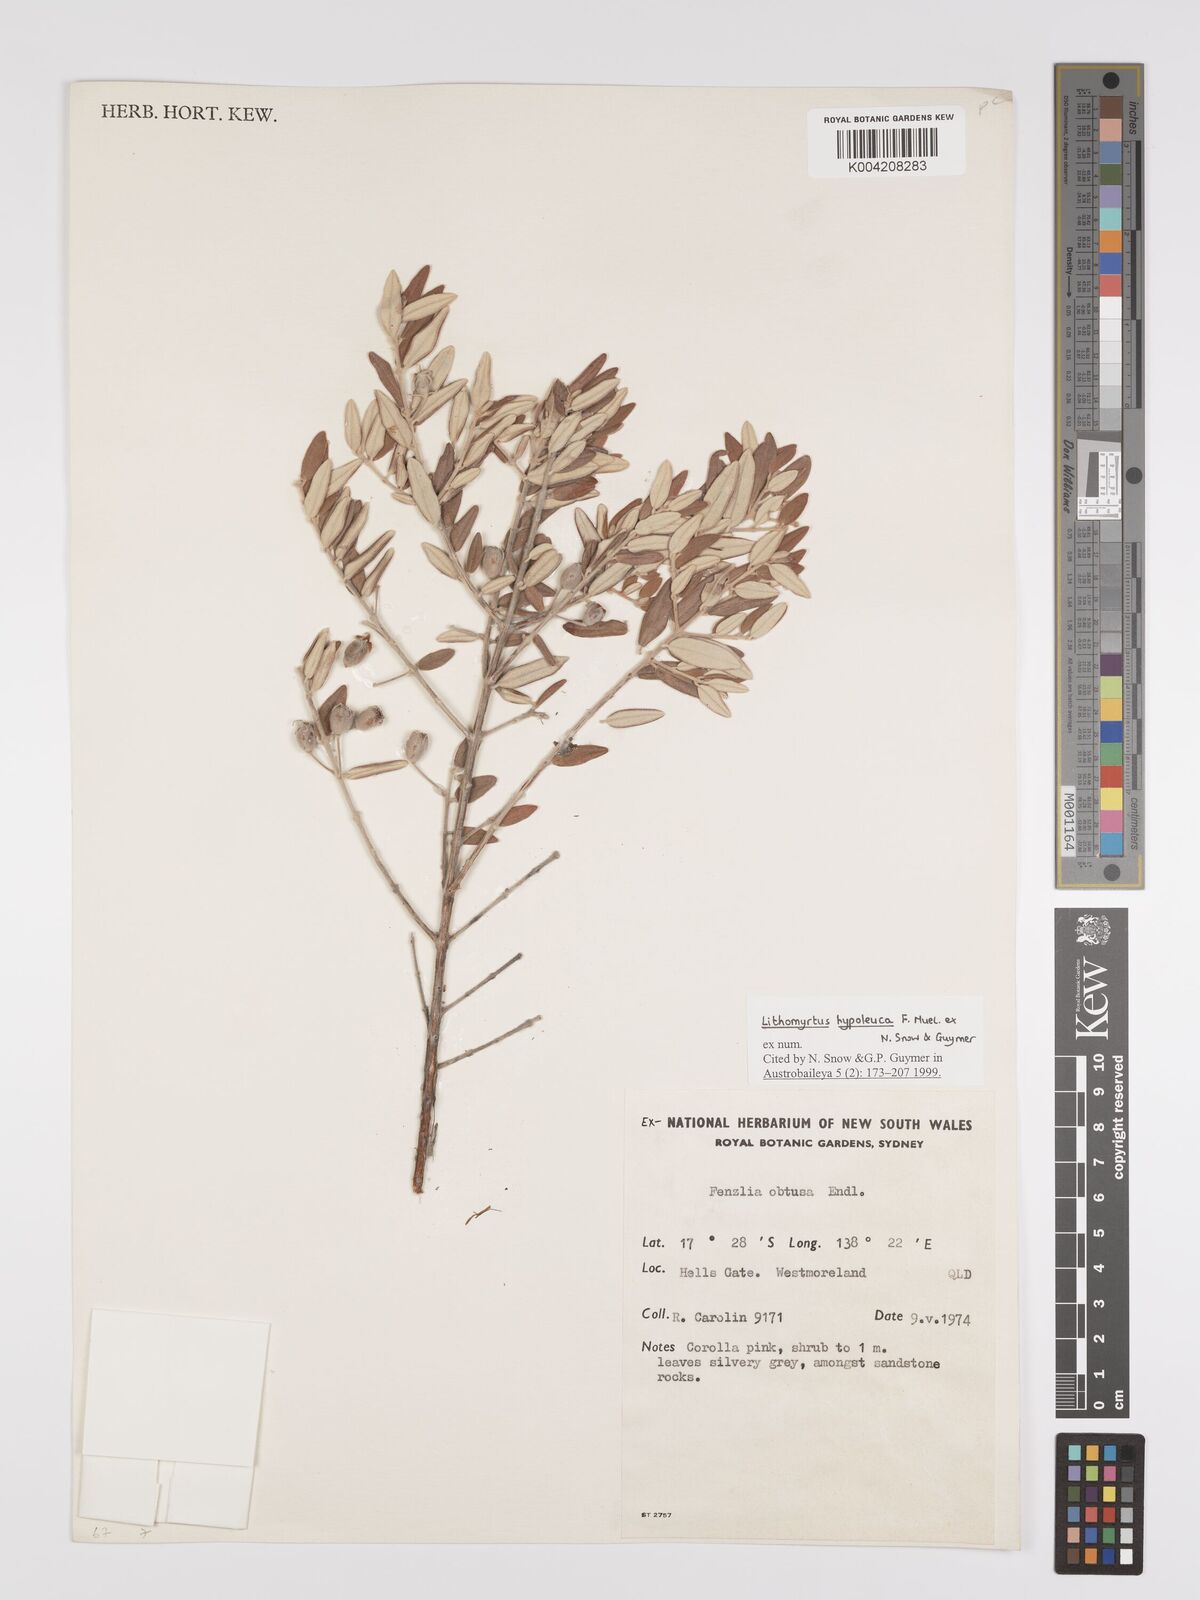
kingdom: Plantae
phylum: Tracheophyta
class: Magnoliopsida
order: Myrtales
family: Myrtaceae
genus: Lithomyrtus
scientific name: Lithomyrtus hypoleuca
